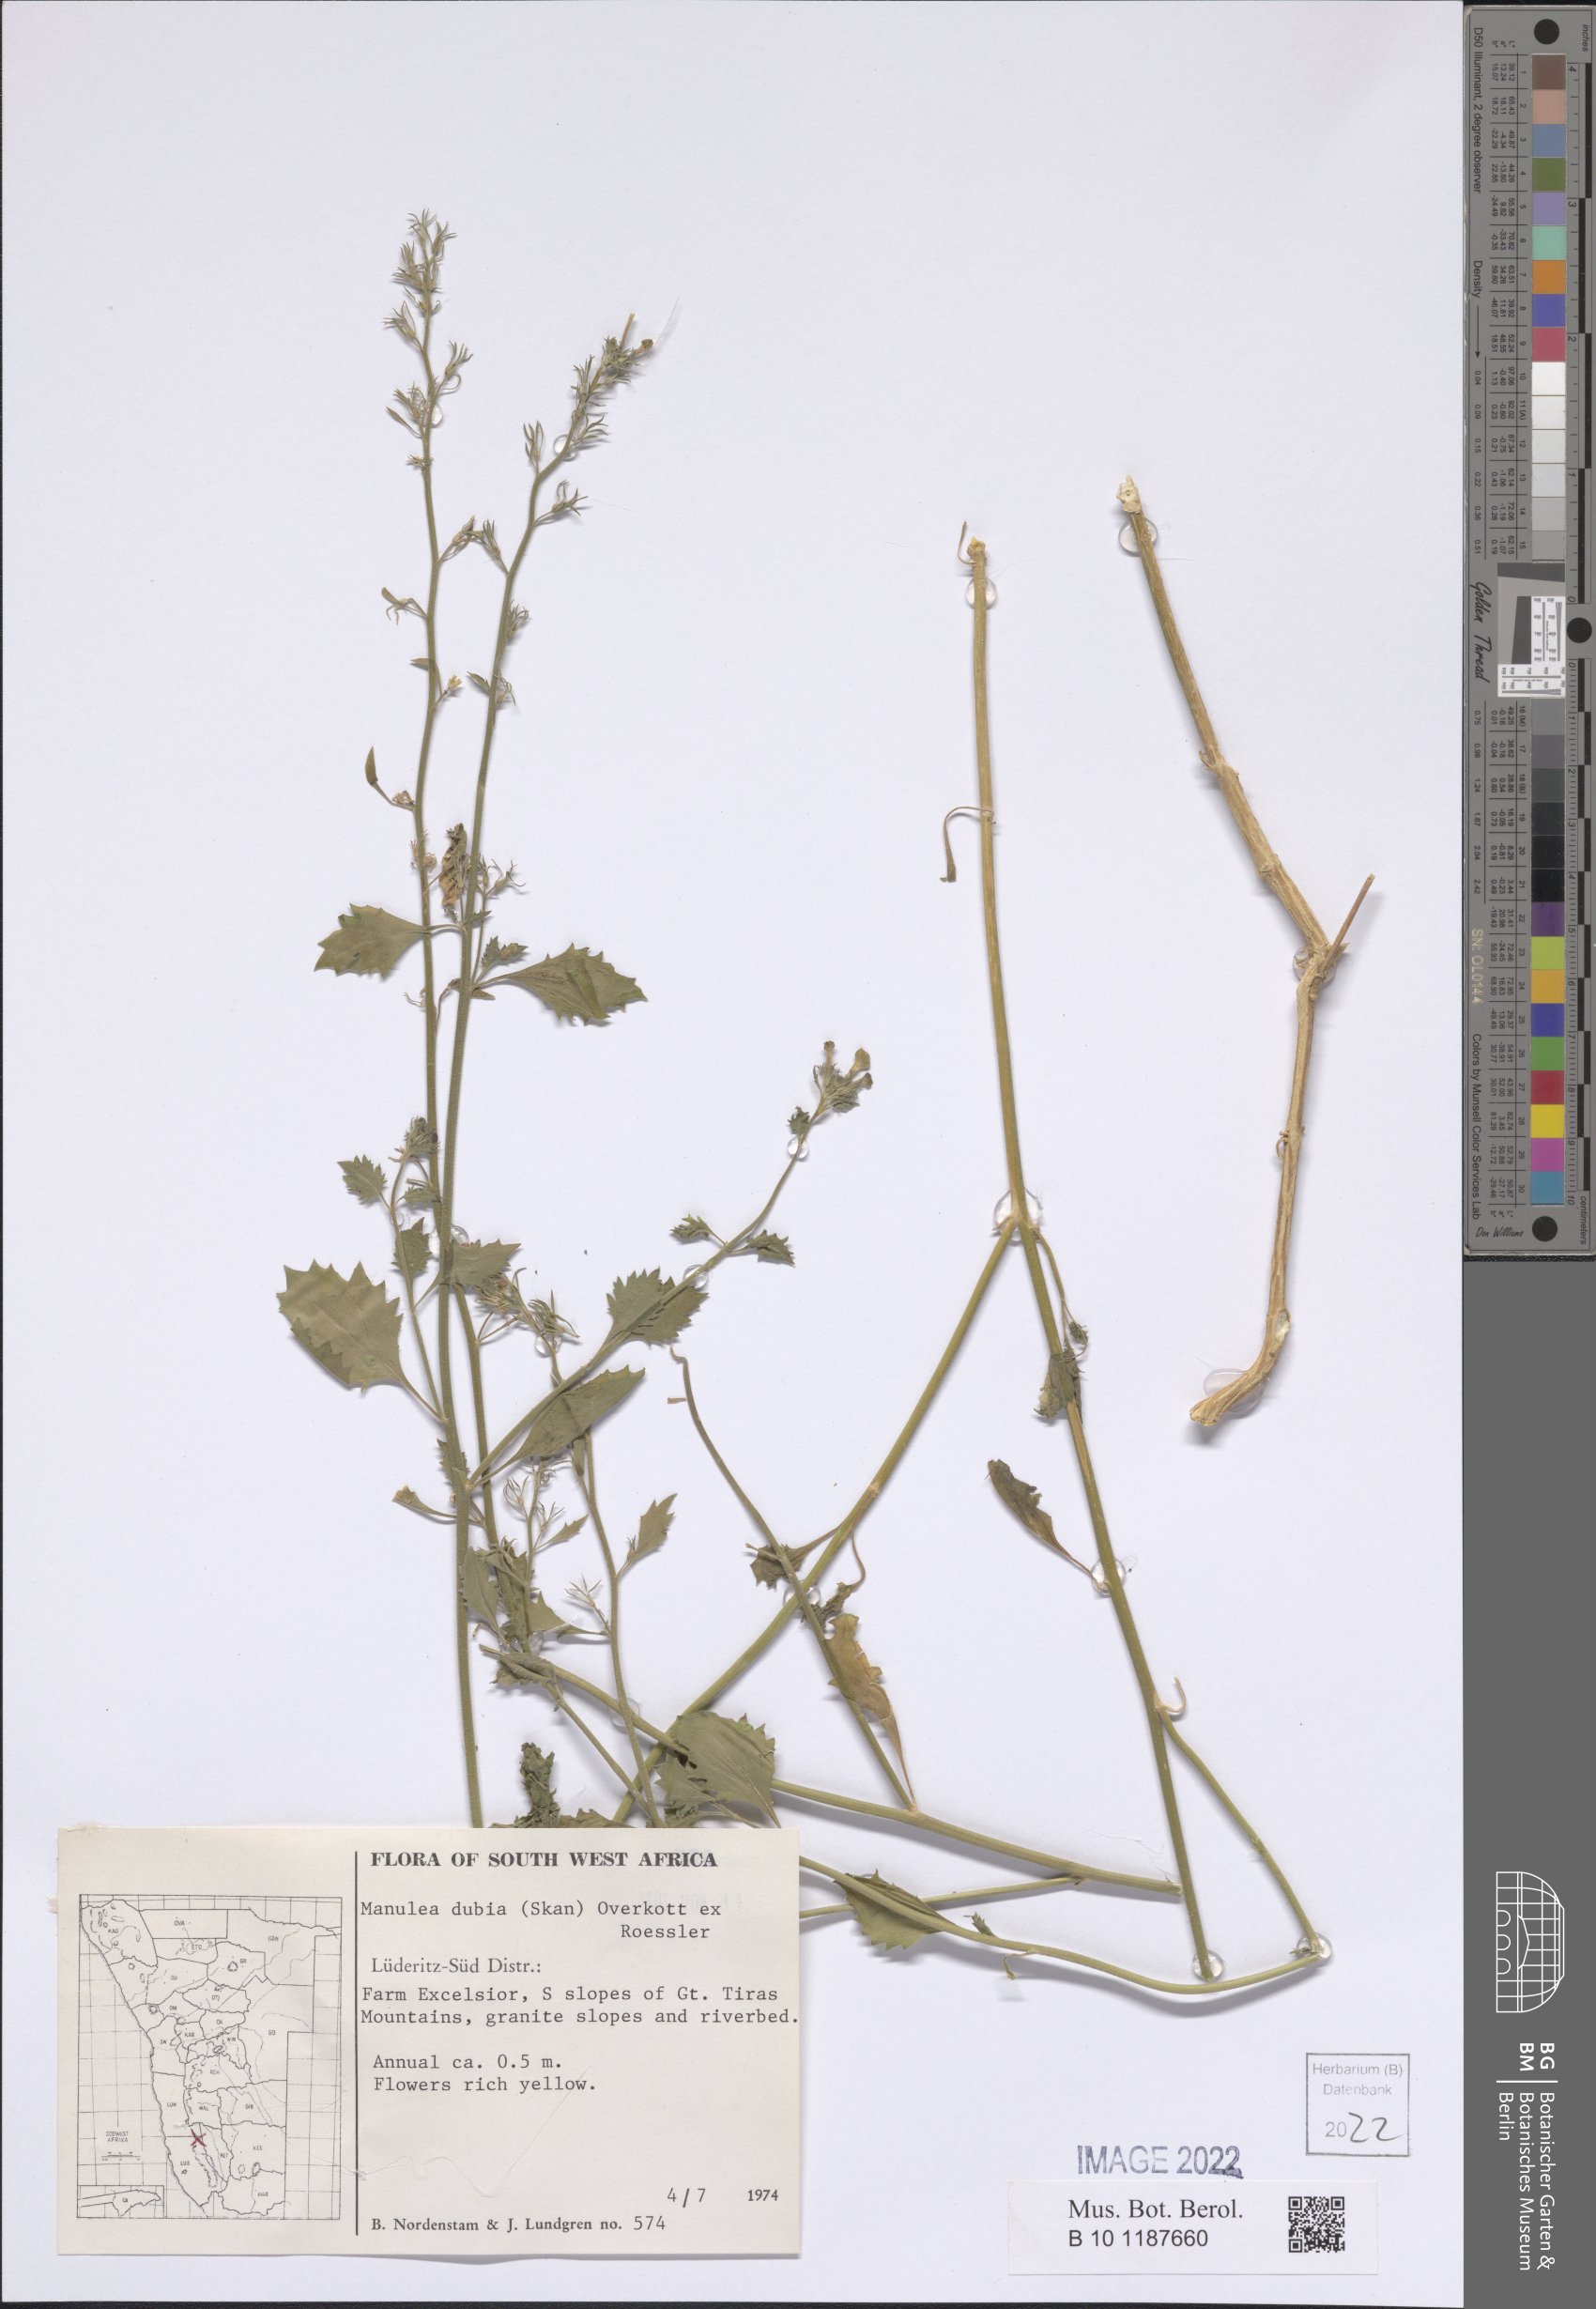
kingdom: Plantae
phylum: Tracheophyta
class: Magnoliopsida
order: Lamiales
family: Scrophulariaceae
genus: Manulea
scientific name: Manulea dubia
